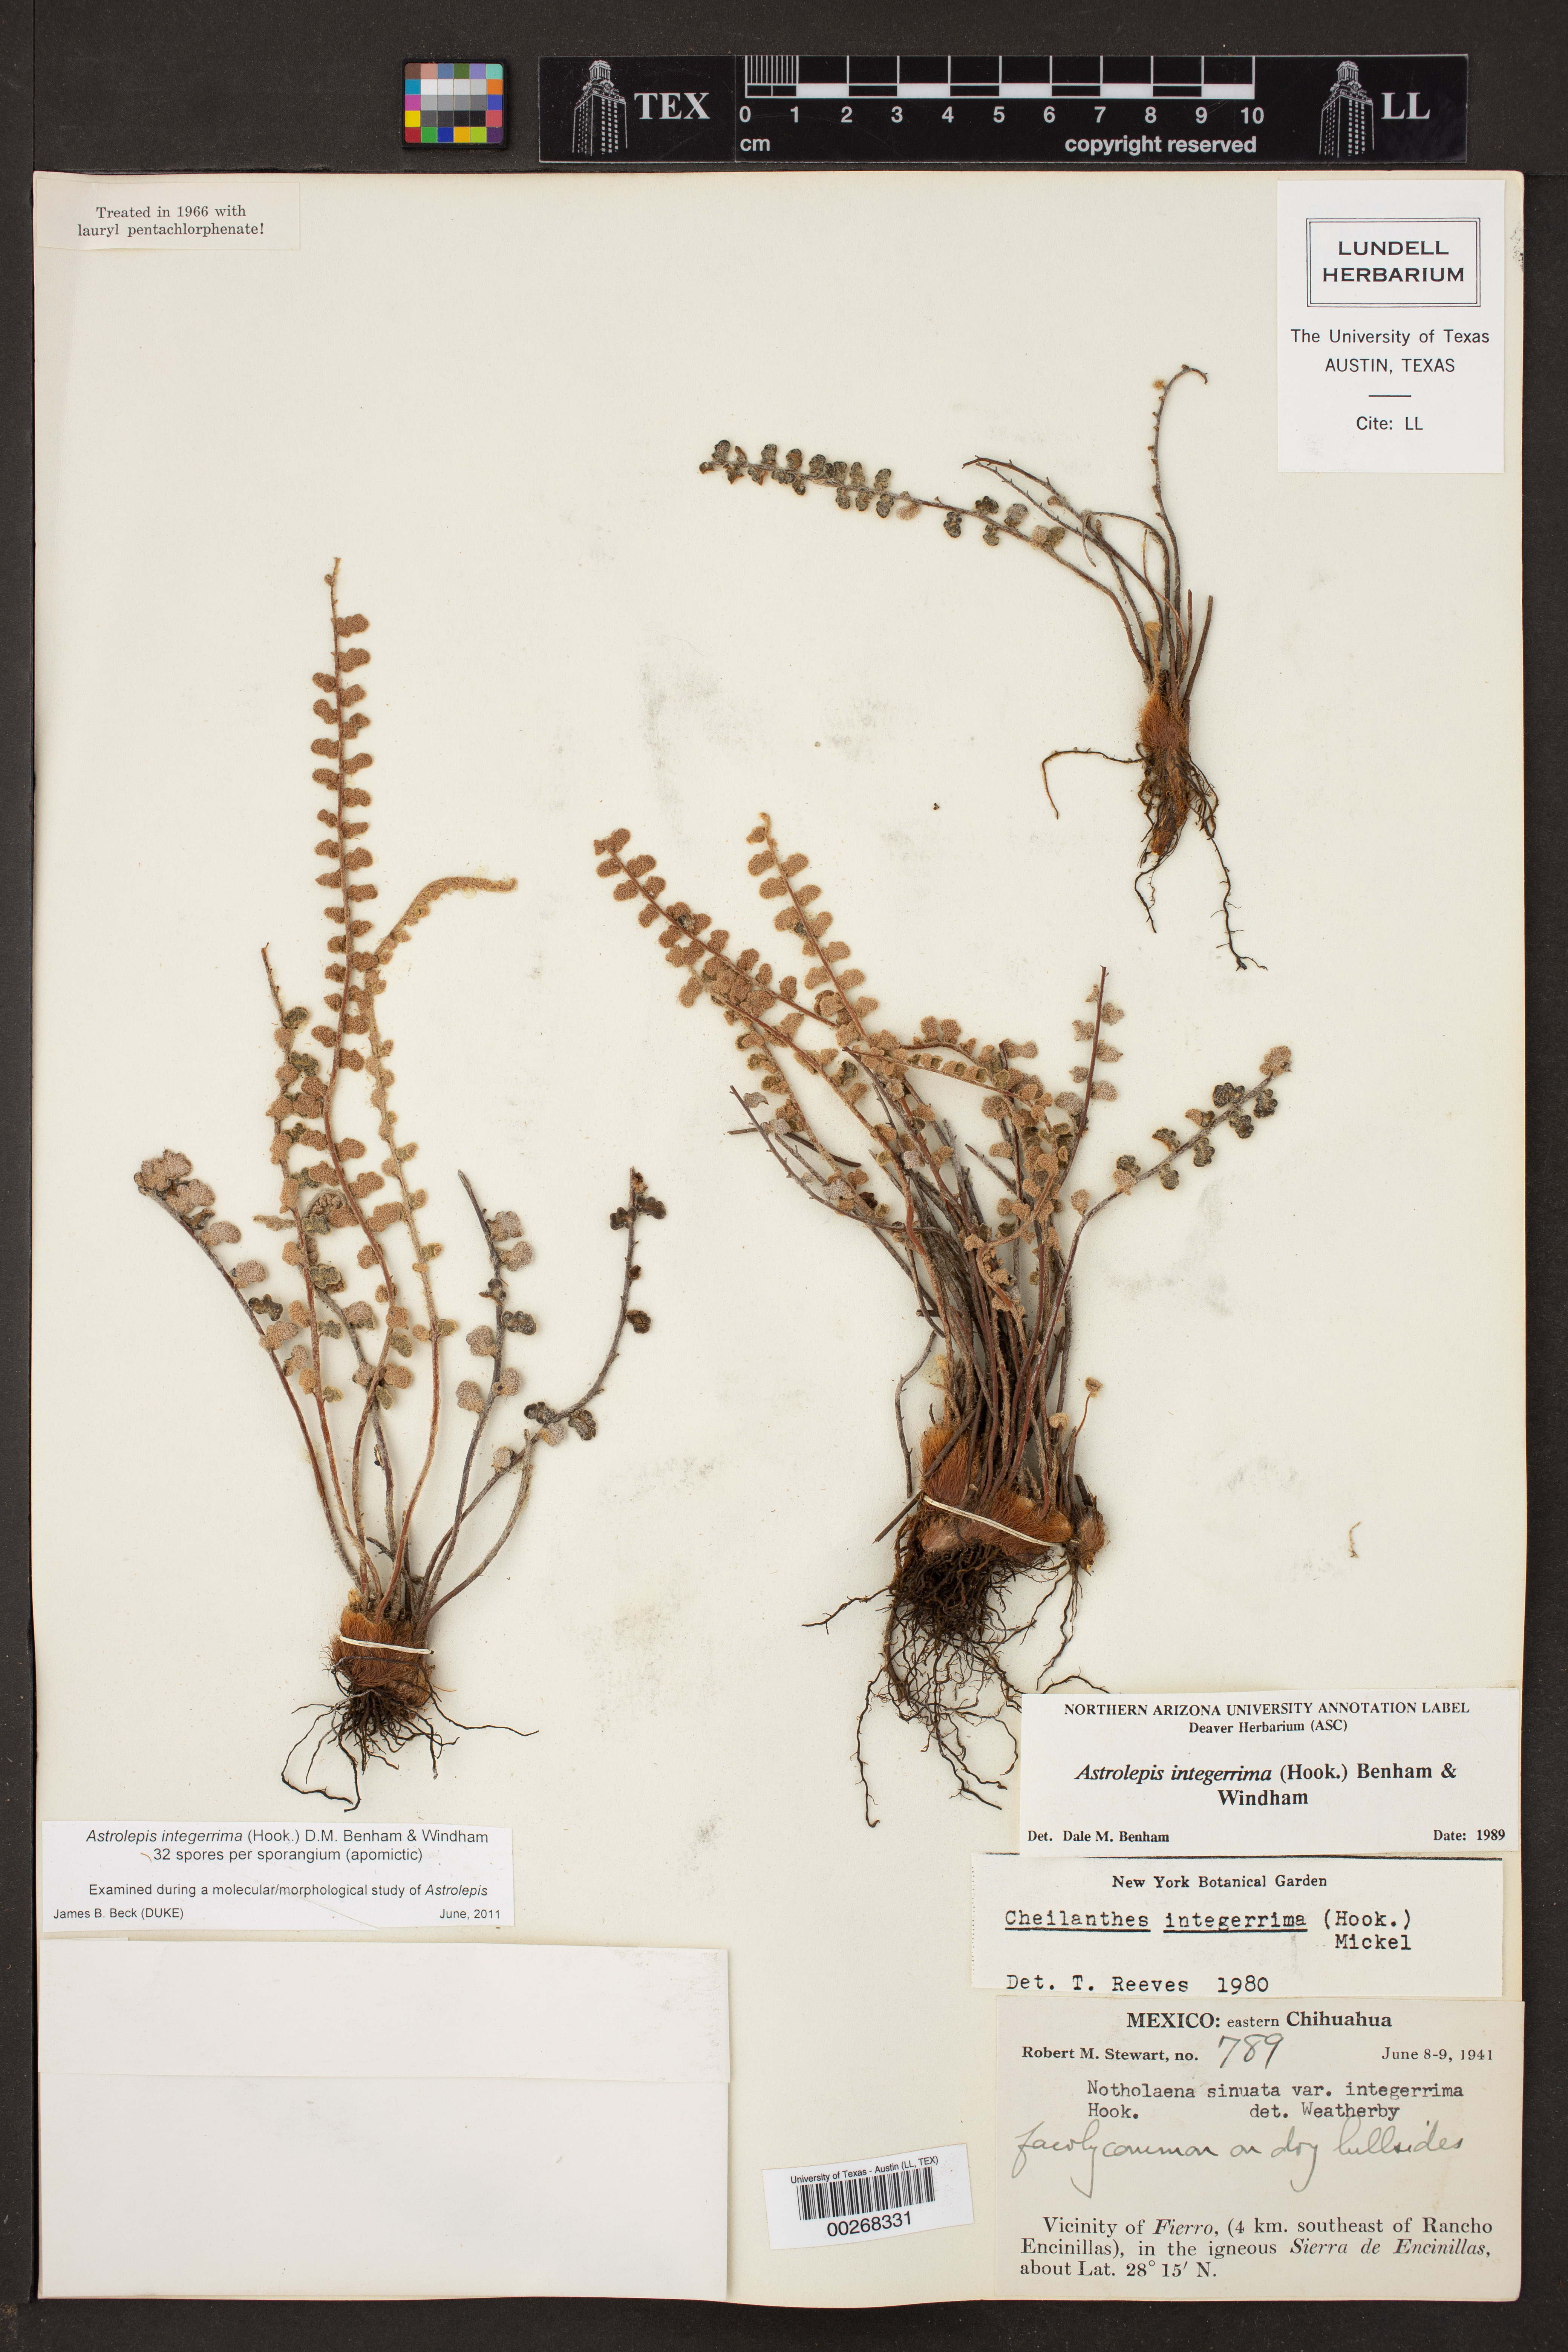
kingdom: Plantae
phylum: Tracheophyta
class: Polypodiopsida
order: Polypodiales
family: Pteridaceae
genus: Astrolepis
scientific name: Astrolepis integerrima
